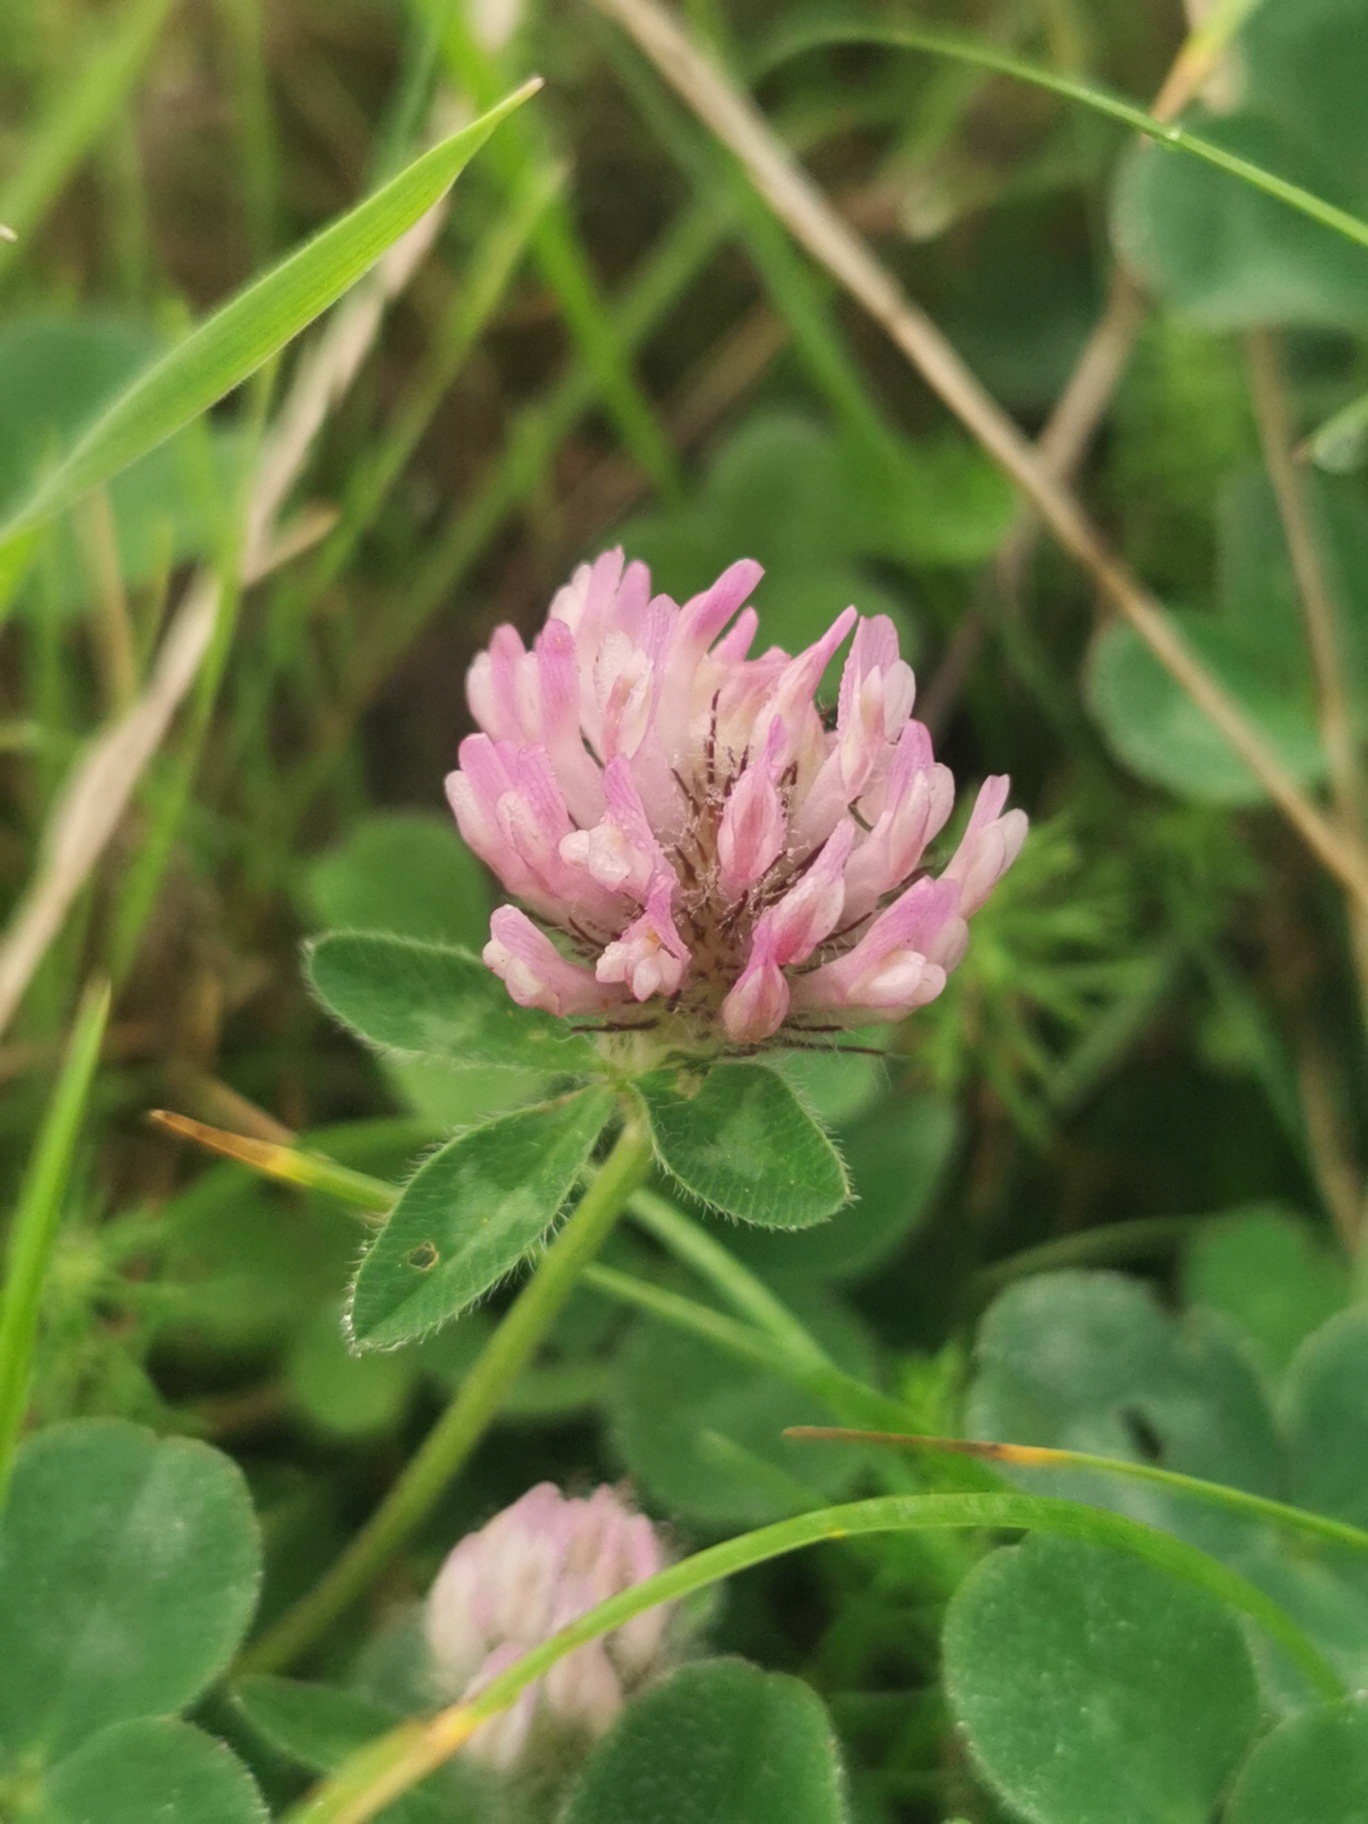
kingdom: Plantae
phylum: Tracheophyta
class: Magnoliopsida
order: Fabales
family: Fabaceae
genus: Trifolium
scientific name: Trifolium pratense
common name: Rød-kløver
